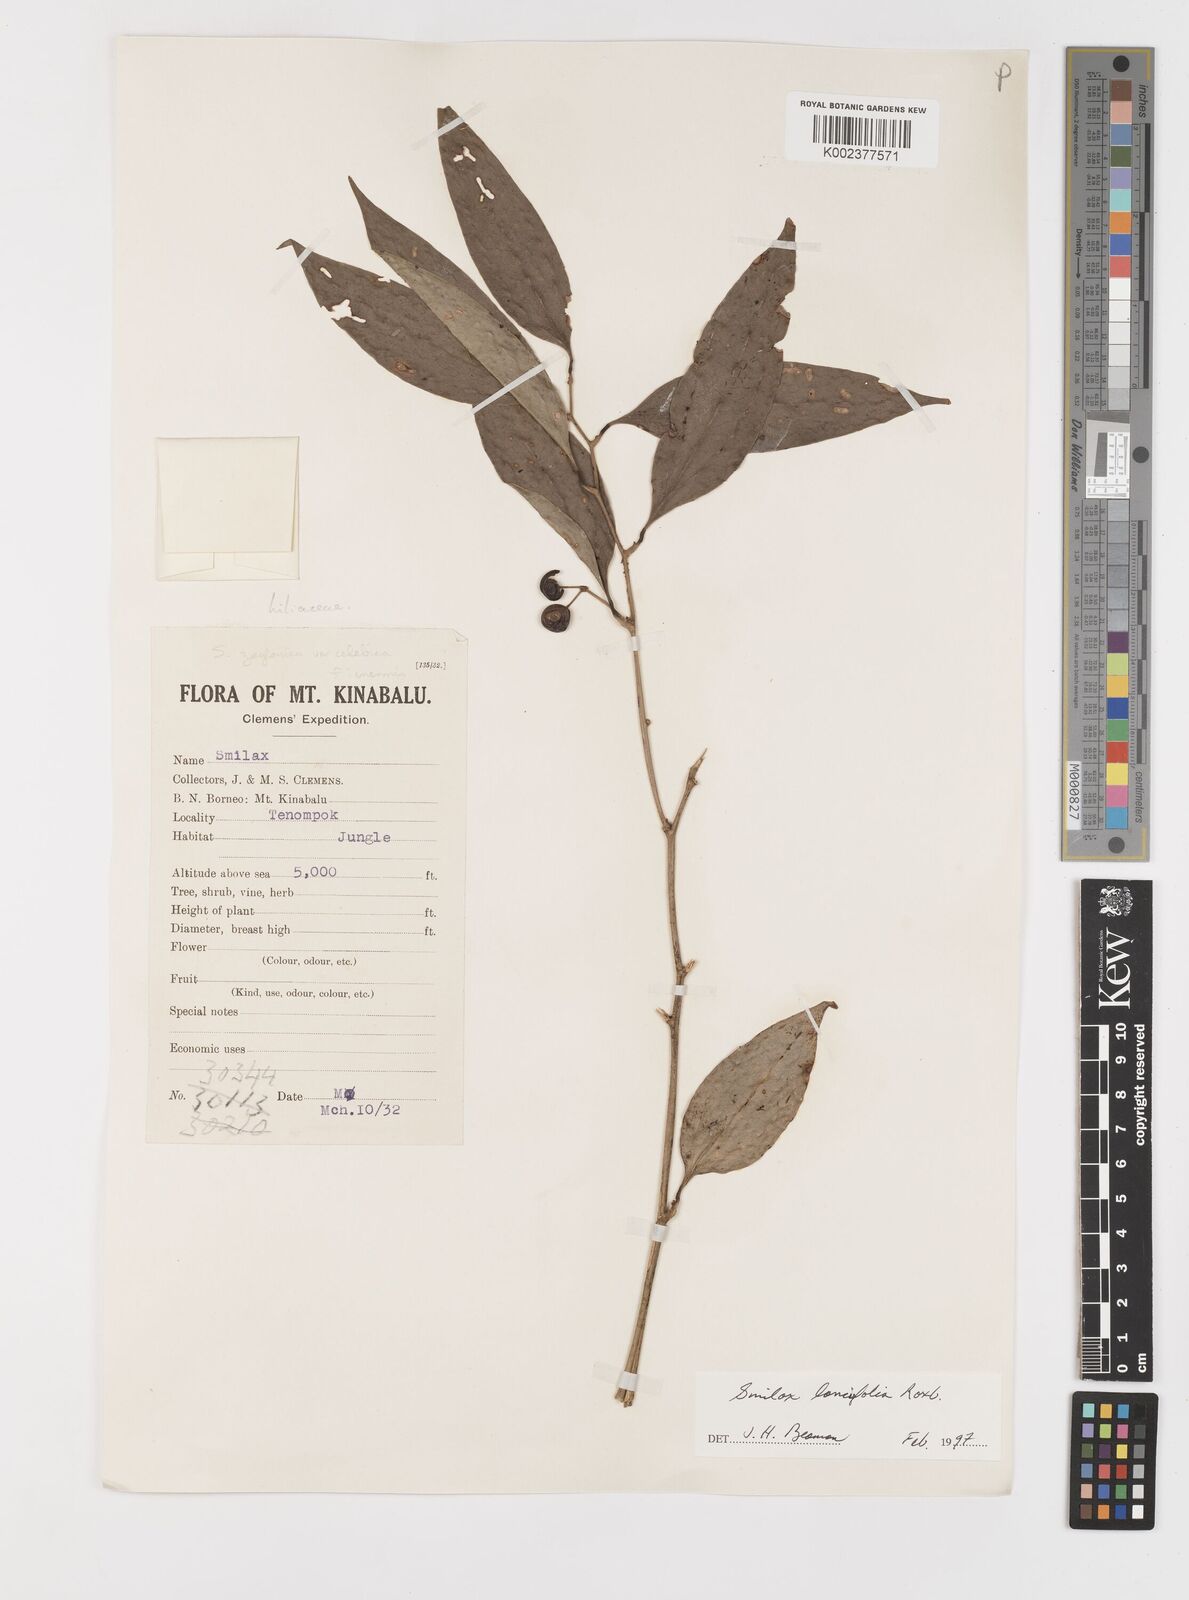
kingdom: Plantae
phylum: Tracheophyta
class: Liliopsida
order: Liliales
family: Smilacaceae
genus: Smilax
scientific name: Smilax lanceifolia
